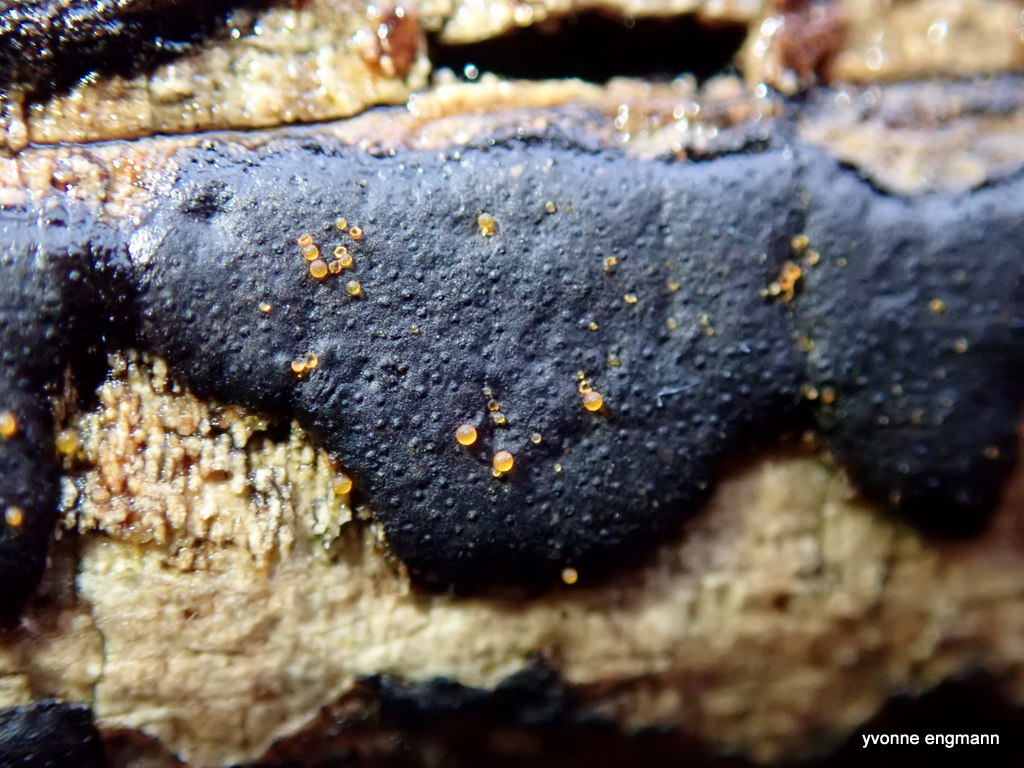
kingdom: Fungi
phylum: Ascomycota
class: Sordariomycetes
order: Xylariales
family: Diatrypaceae
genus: Diatrype
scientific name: Diatrype decorticata
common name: barksprænger-kulskorpe
